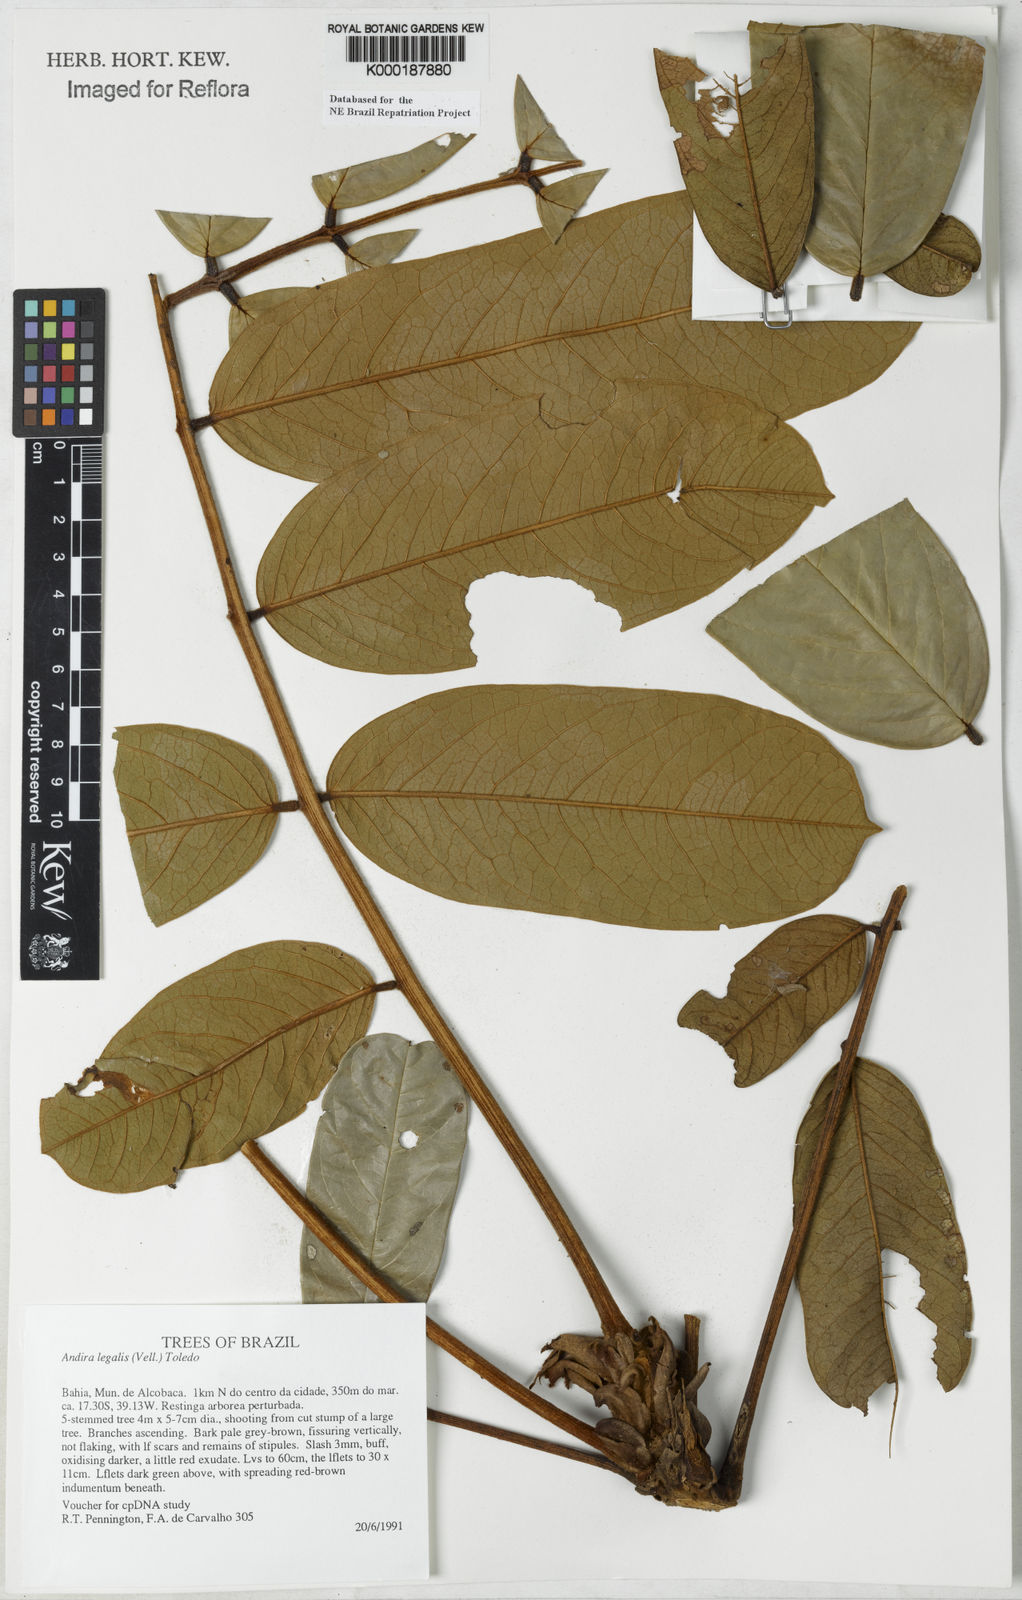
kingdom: Plantae
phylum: Tracheophyta
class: Magnoliopsida
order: Fabales
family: Fabaceae
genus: Andira
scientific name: Andira legalis
